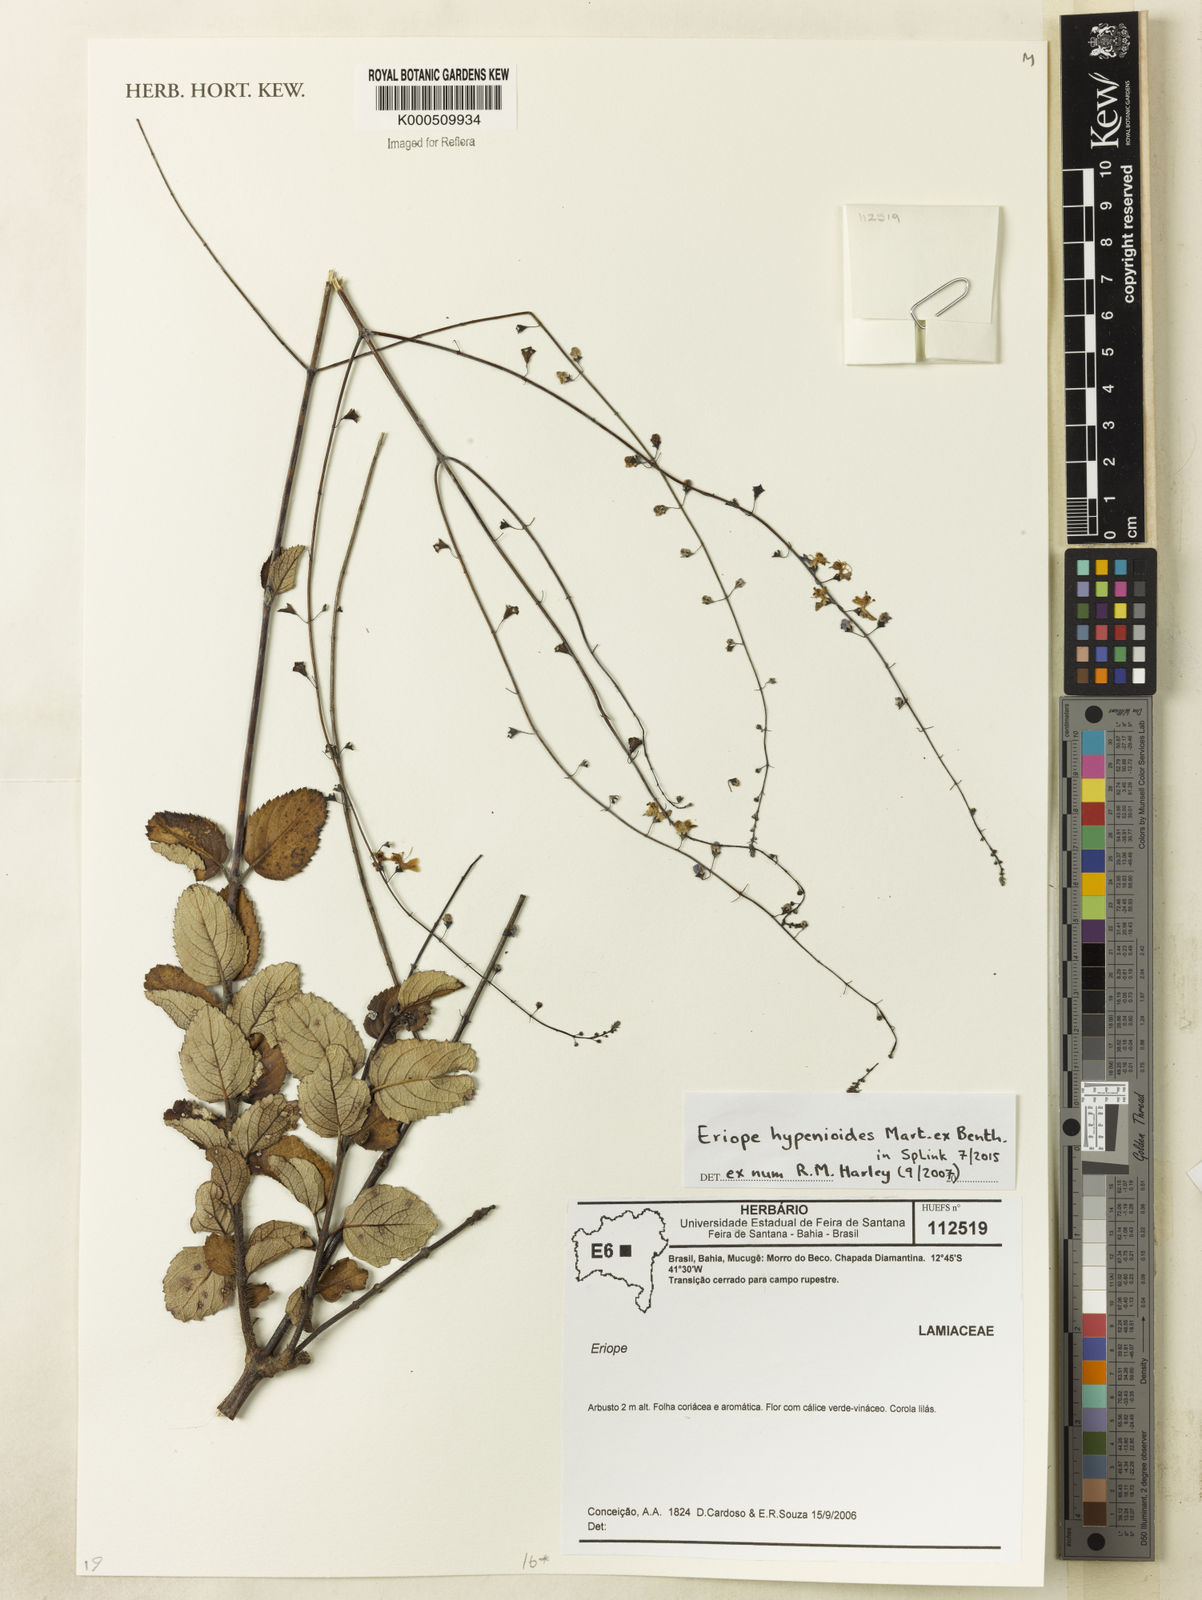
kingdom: Plantae
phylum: Tracheophyta
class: Magnoliopsida
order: Lamiales
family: Lamiaceae
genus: Eriope
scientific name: Eriope tumidicaulis
